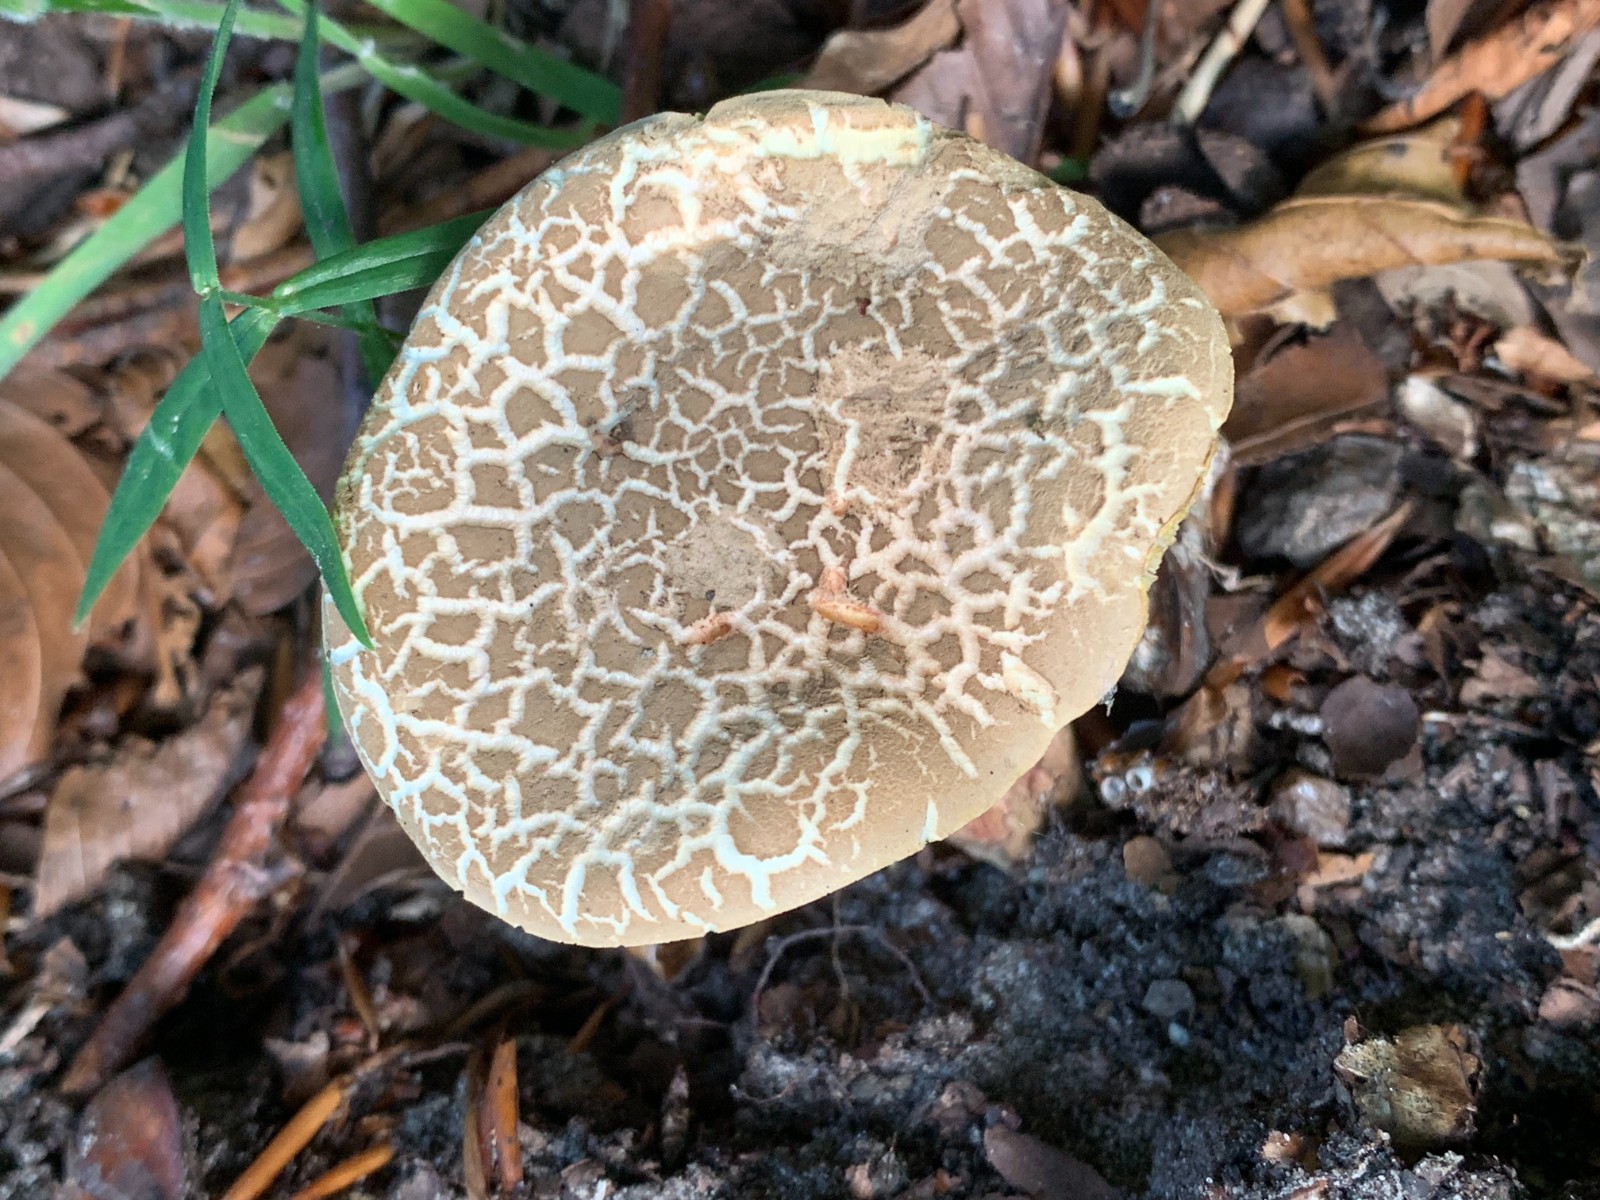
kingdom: Fungi
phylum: Basidiomycota
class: Agaricomycetes
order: Boletales
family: Boletaceae
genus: Xerocomellus
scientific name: Xerocomellus porosporus
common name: hvidsprukken rørhat
